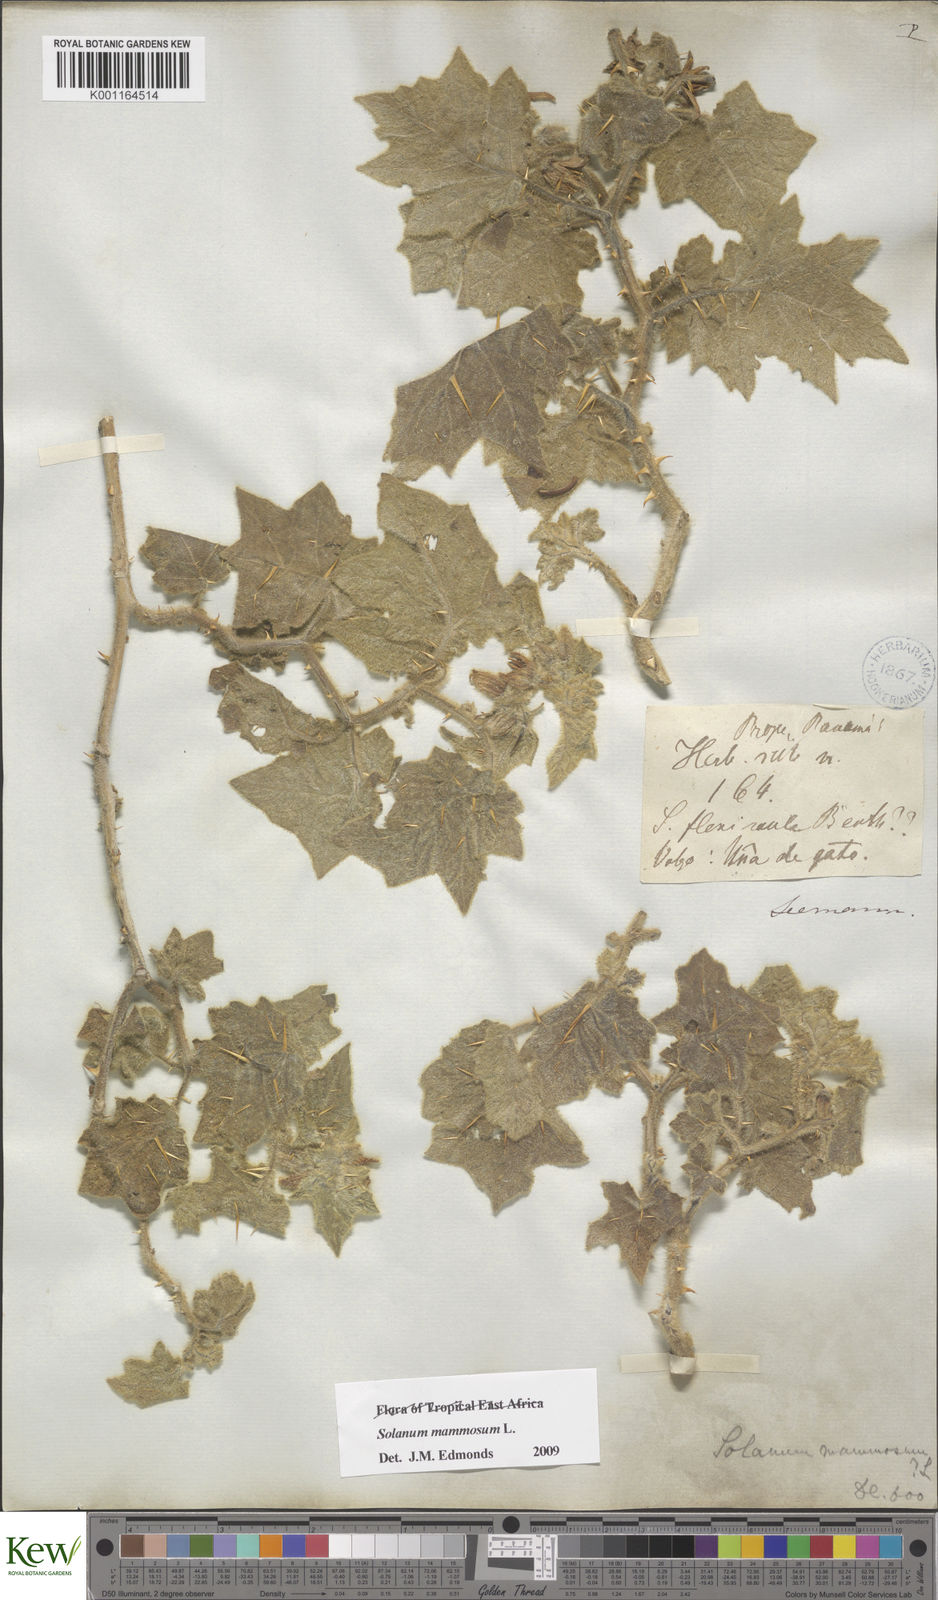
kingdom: Plantae
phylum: Tracheophyta
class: Magnoliopsida
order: Solanales
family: Solanaceae
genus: Solanum
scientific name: Solanum mammosum
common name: Nipple fruit
